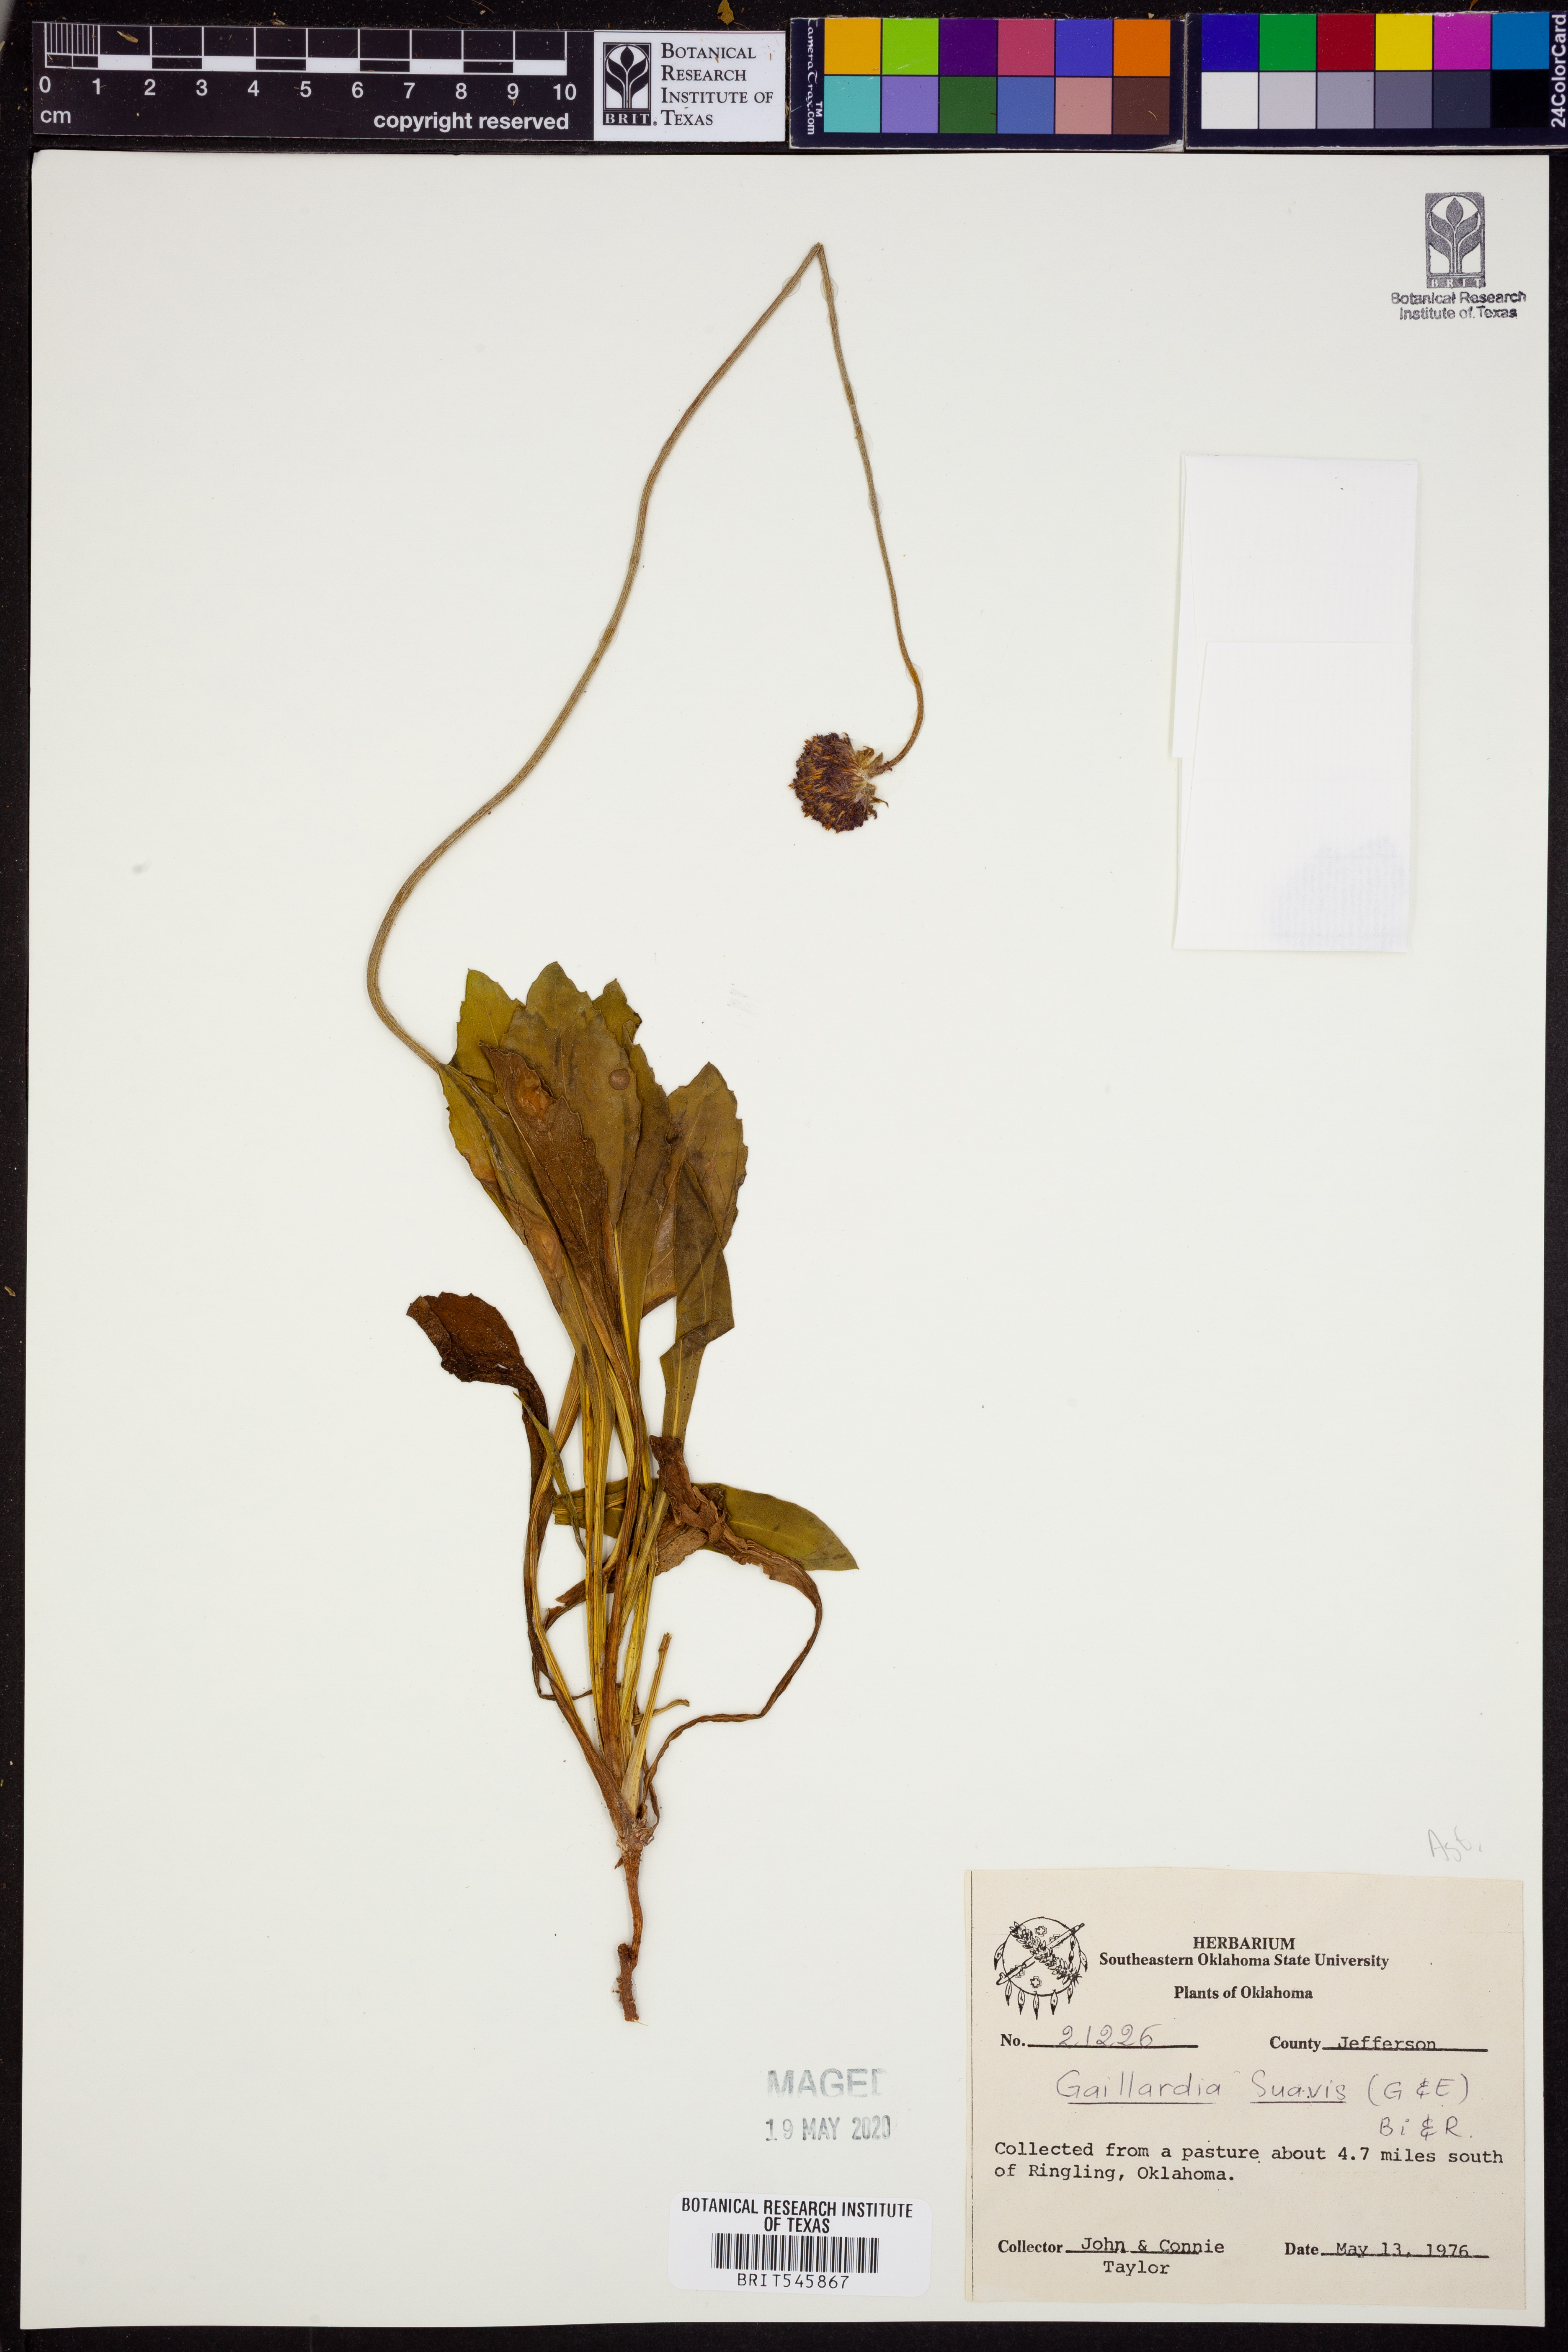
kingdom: Plantae
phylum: Tracheophyta
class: Magnoliopsida
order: Asterales
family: Asteraceae
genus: Gaillardia
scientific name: Gaillardia suavis
